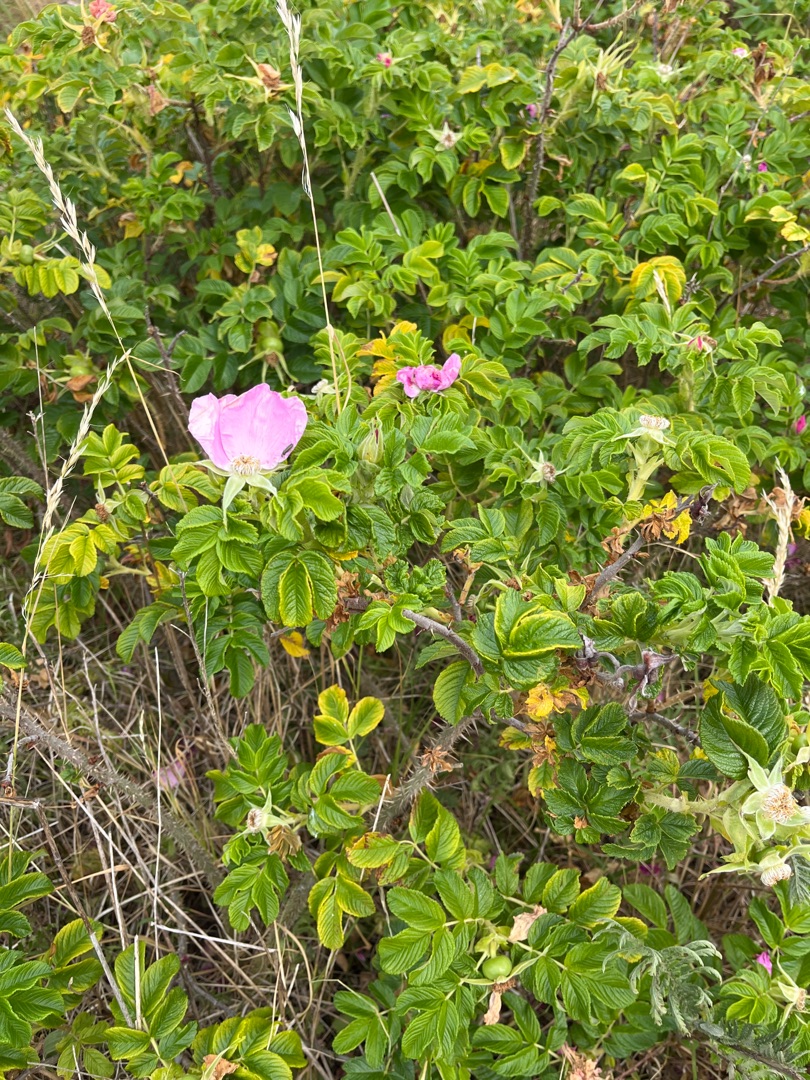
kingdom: Plantae
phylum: Tracheophyta
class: Magnoliopsida
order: Rosales
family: Rosaceae
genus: Rosa
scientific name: Rosa rugosa
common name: Rynket rose
